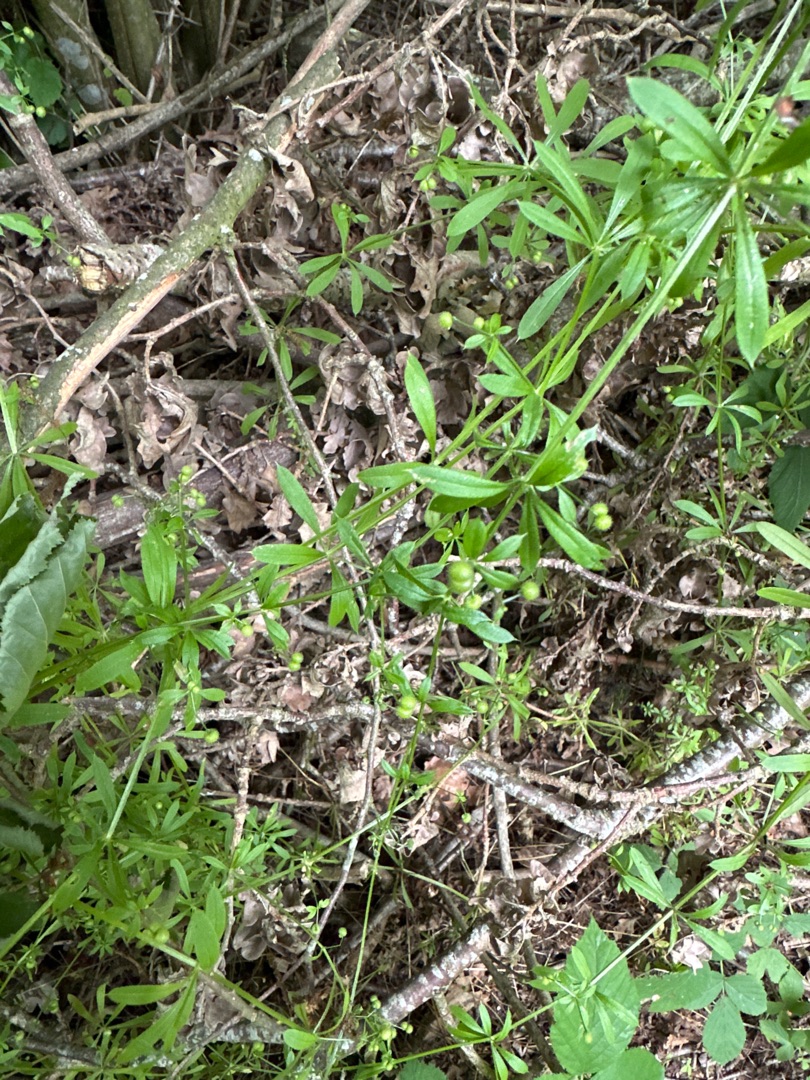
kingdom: Plantae
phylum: Tracheophyta
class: Magnoliopsida
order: Gentianales
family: Rubiaceae
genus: Galium
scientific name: Galium aparine
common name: Burre-snerre
